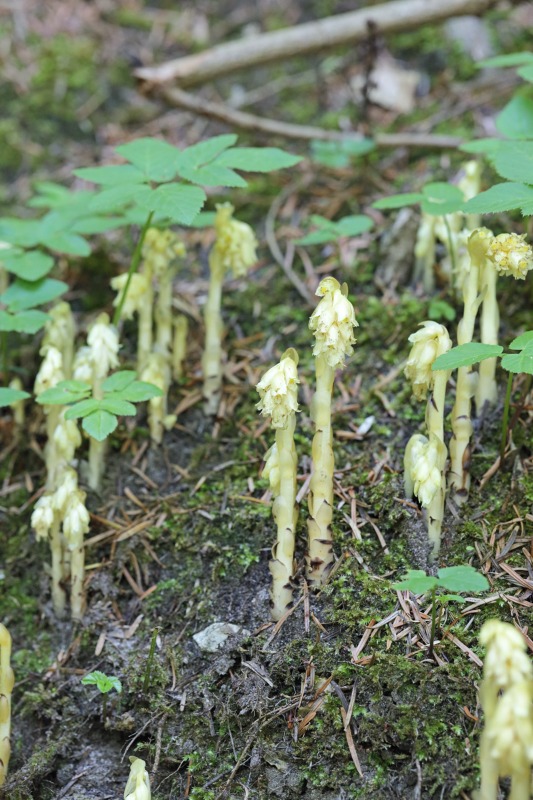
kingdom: Plantae
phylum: Tracheophyta
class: Magnoliopsida
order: Ericales
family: Ericaceae
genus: Hypopitys
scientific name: Hypopitys monotropa
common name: Snylterod
